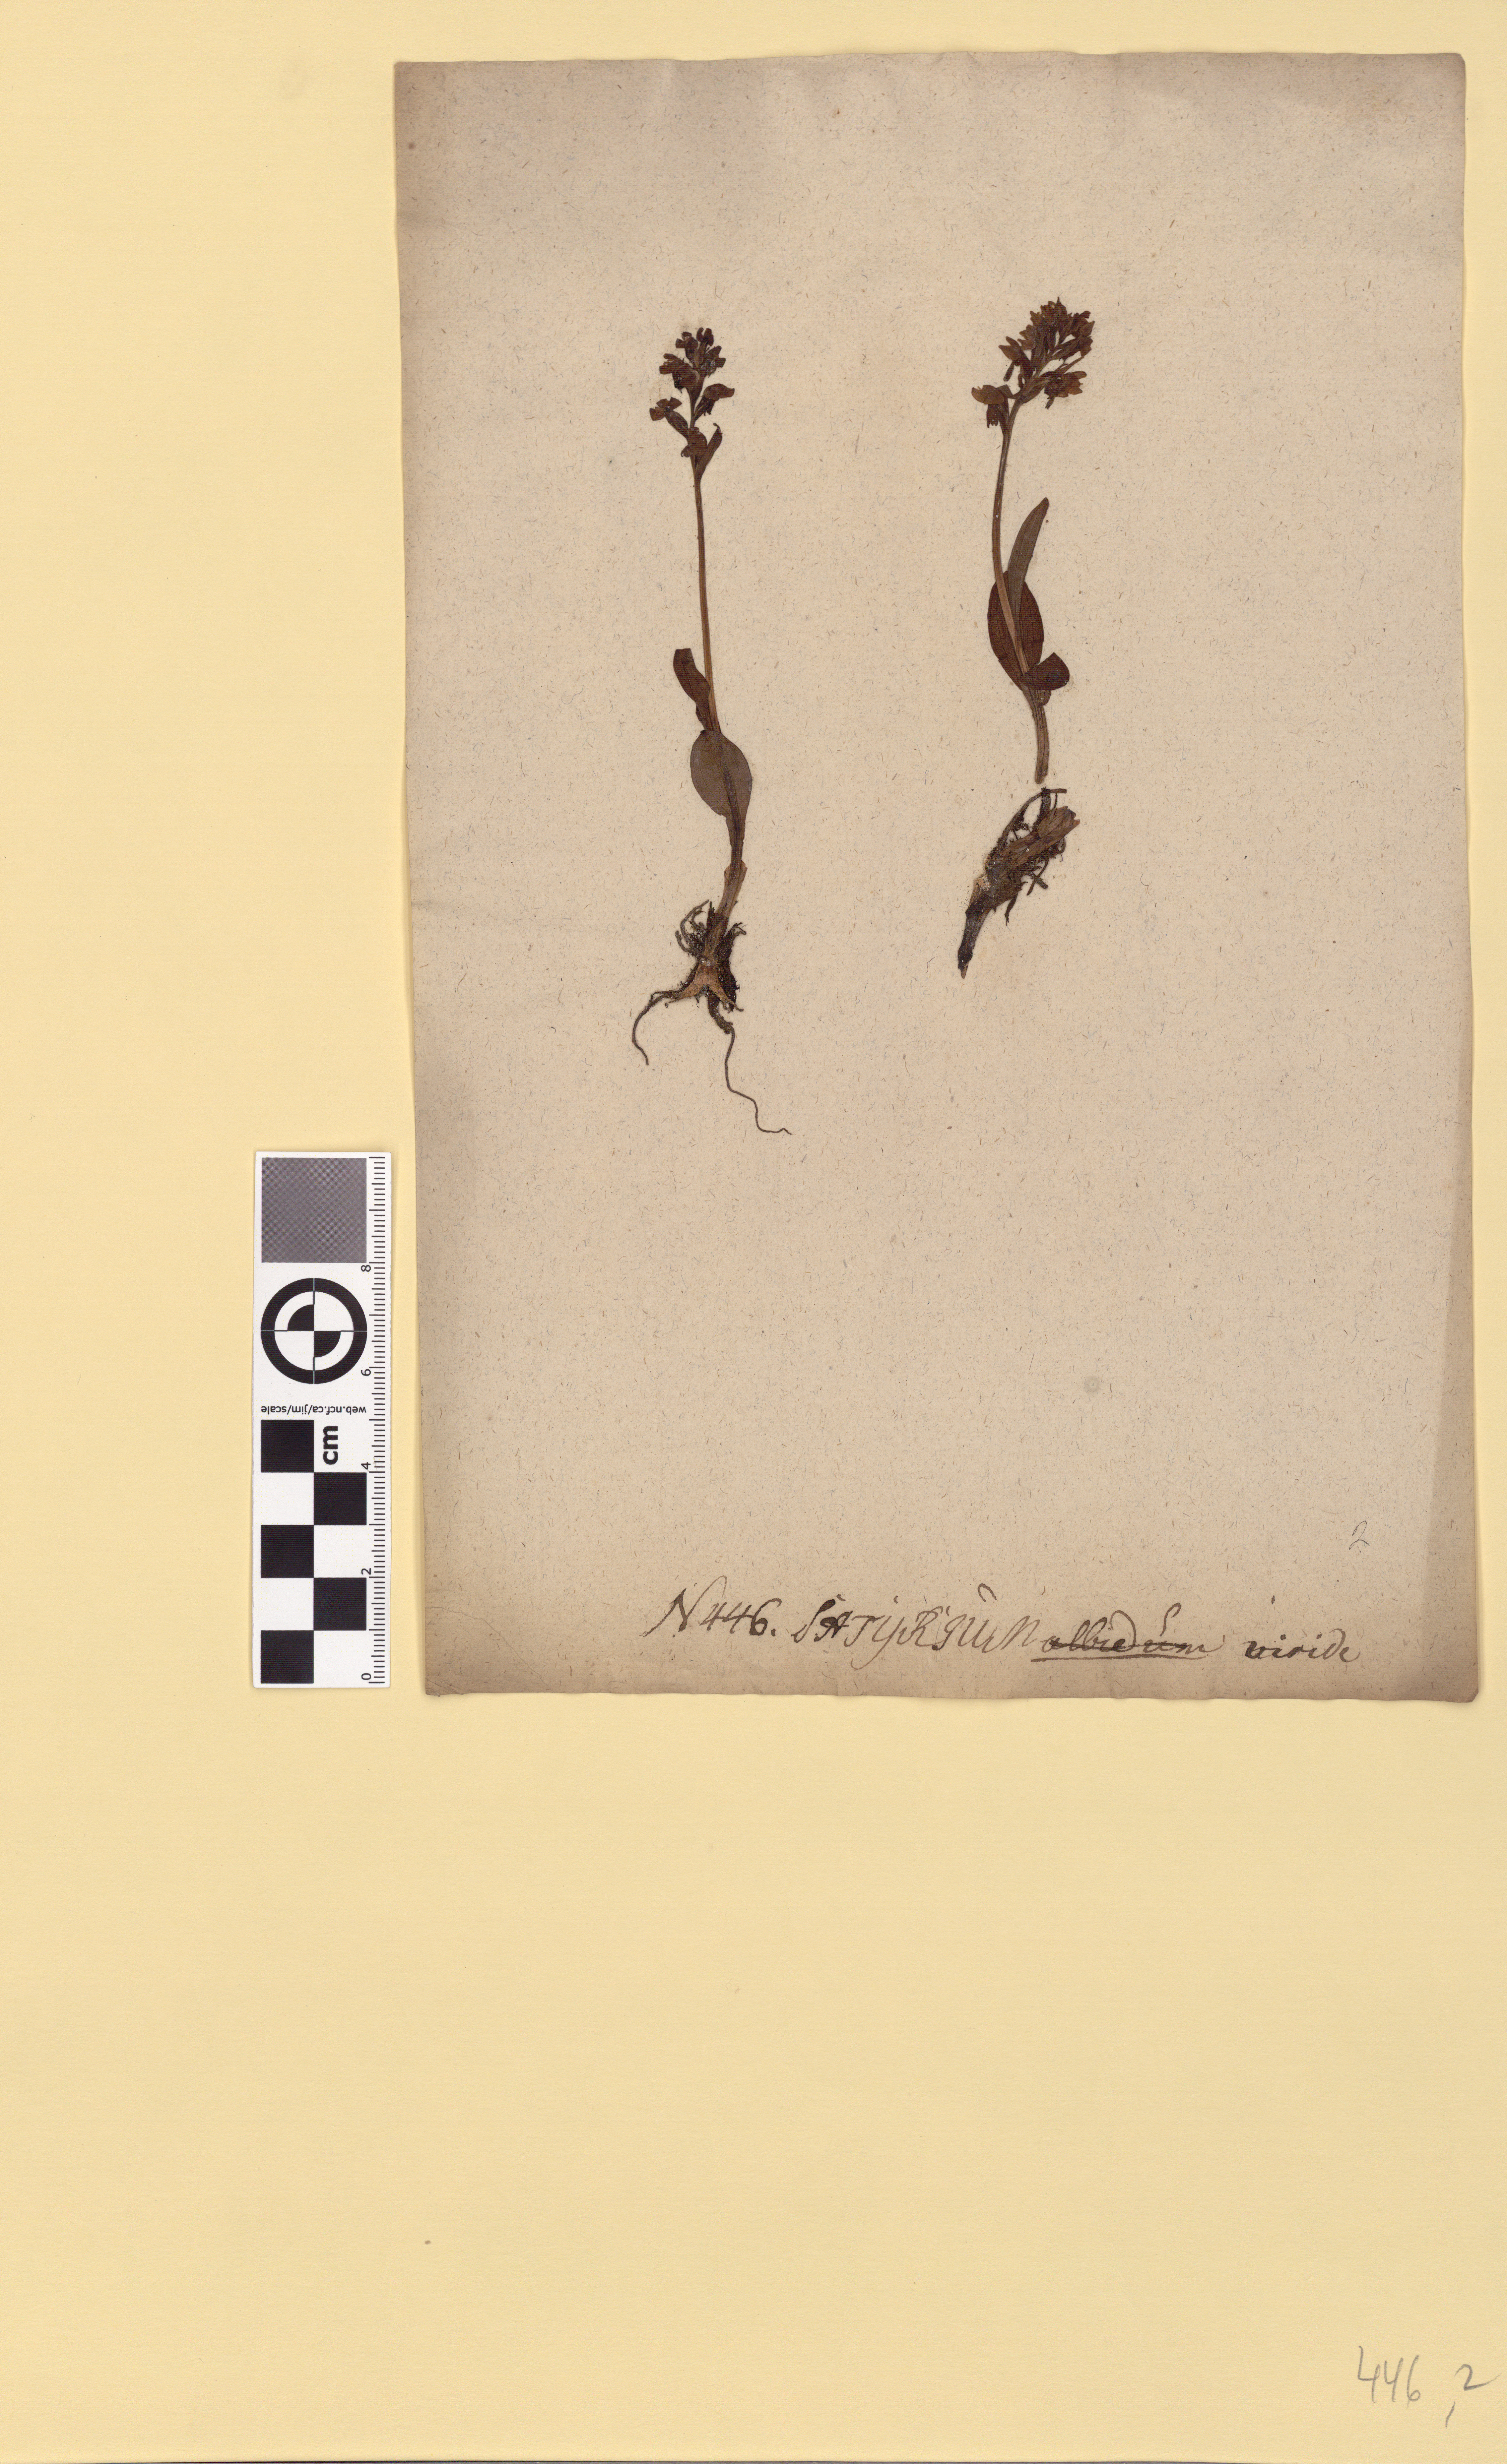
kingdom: Plantae
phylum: Tracheophyta
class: Liliopsida
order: Asparagales
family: Orchidaceae
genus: Dactylorhiza
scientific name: Dactylorhiza viridis
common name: Longbract frog orchid
